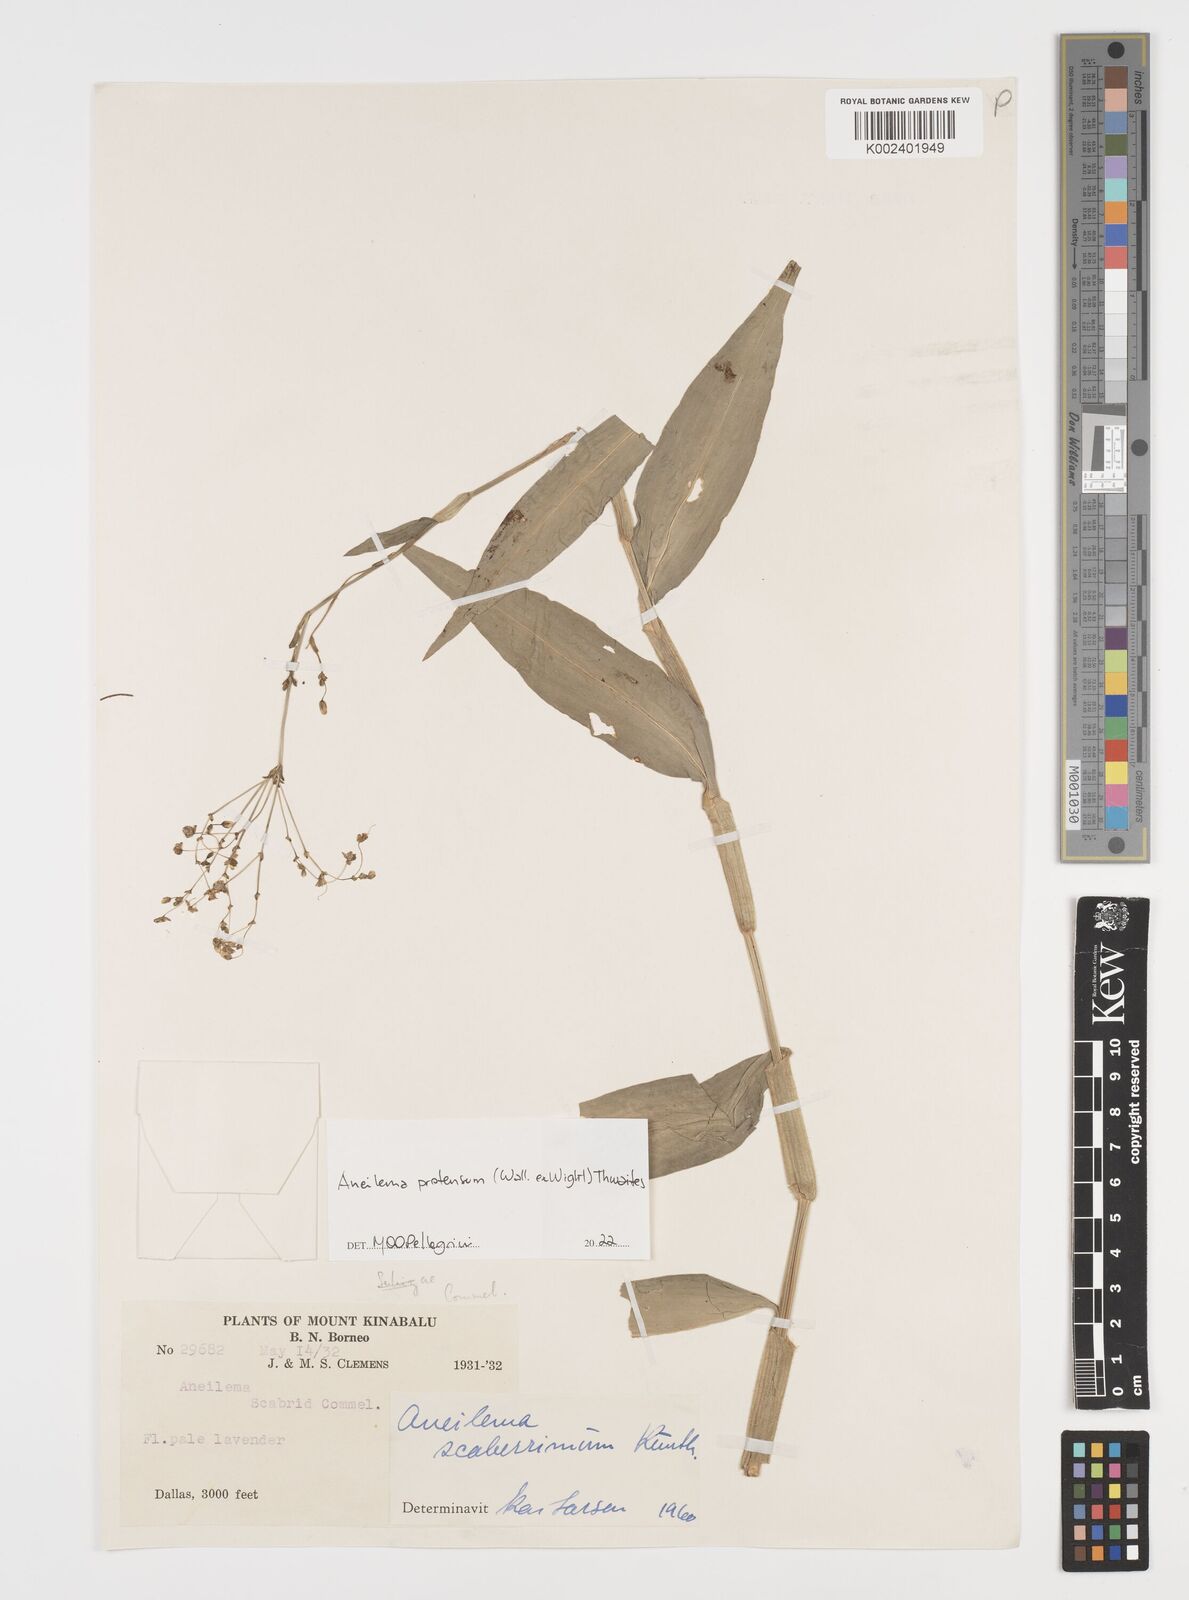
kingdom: Plantae
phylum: Tracheophyta
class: Liliopsida
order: Commelinales
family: Commelinaceae
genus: Rhopalephora
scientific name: Rhopalephora
